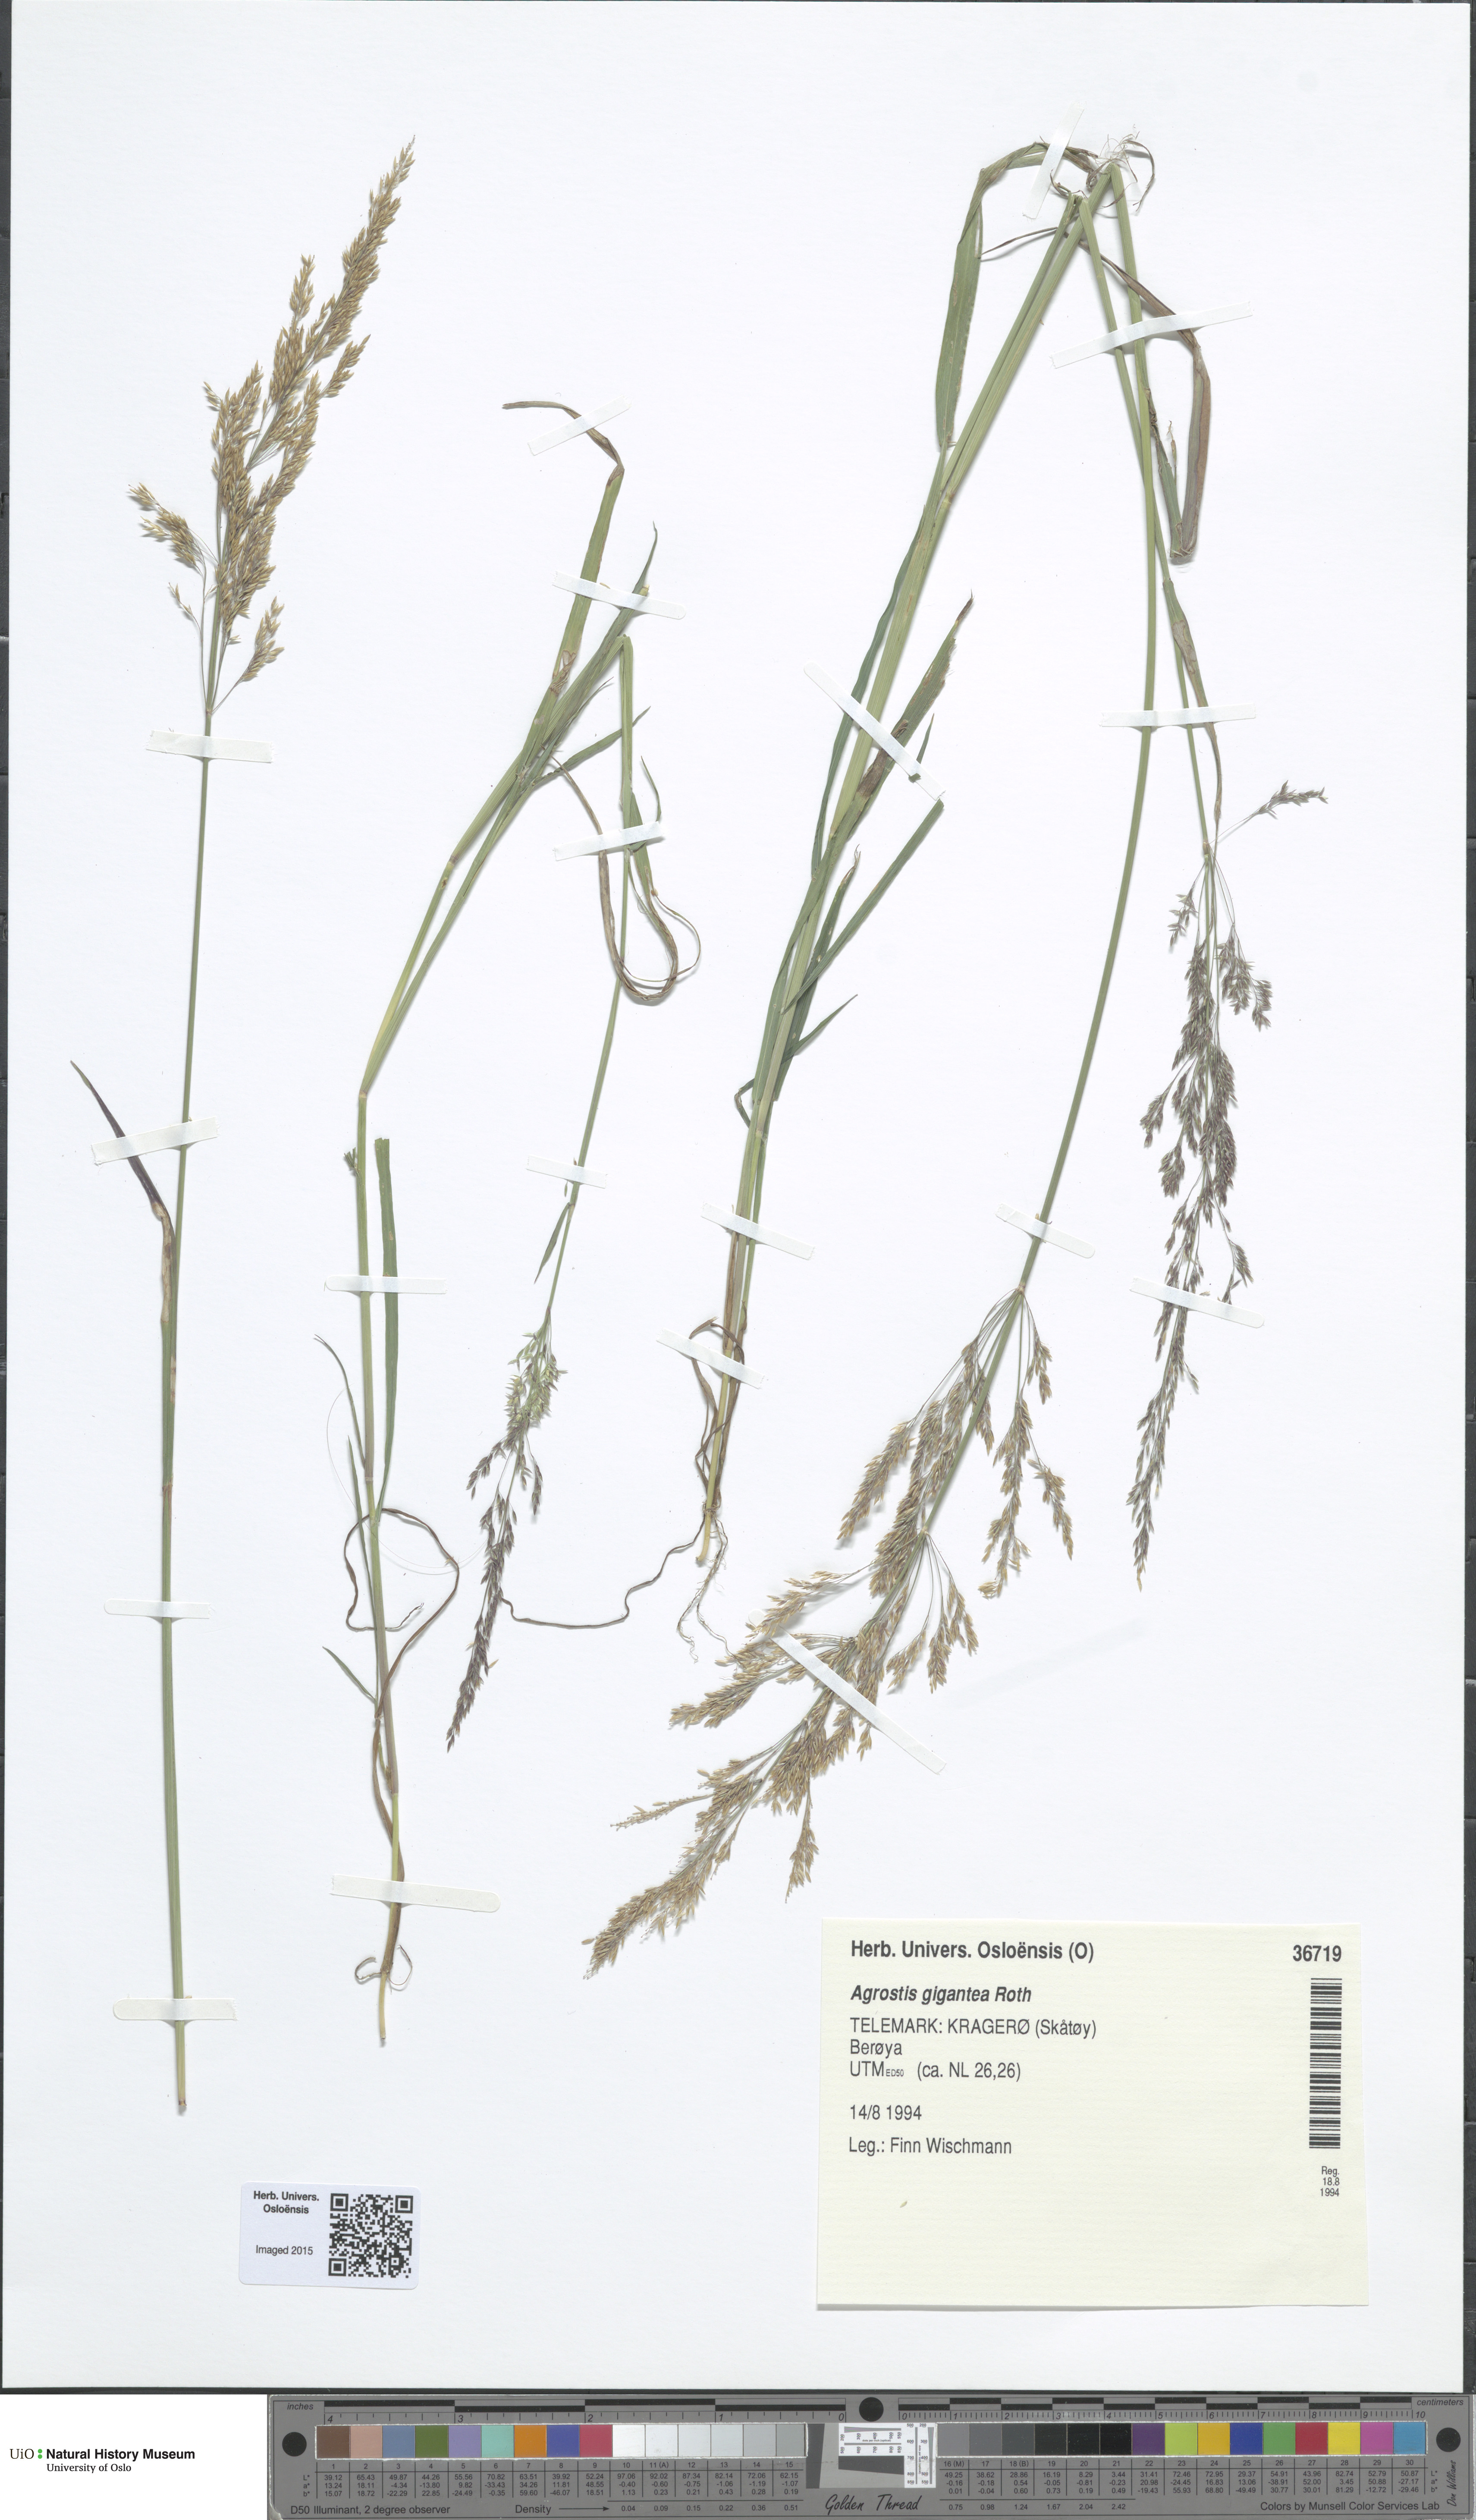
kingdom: Plantae
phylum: Tracheophyta
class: Liliopsida
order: Poales
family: Poaceae
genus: Agrostis
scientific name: Agrostis gigantea
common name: Black bent
